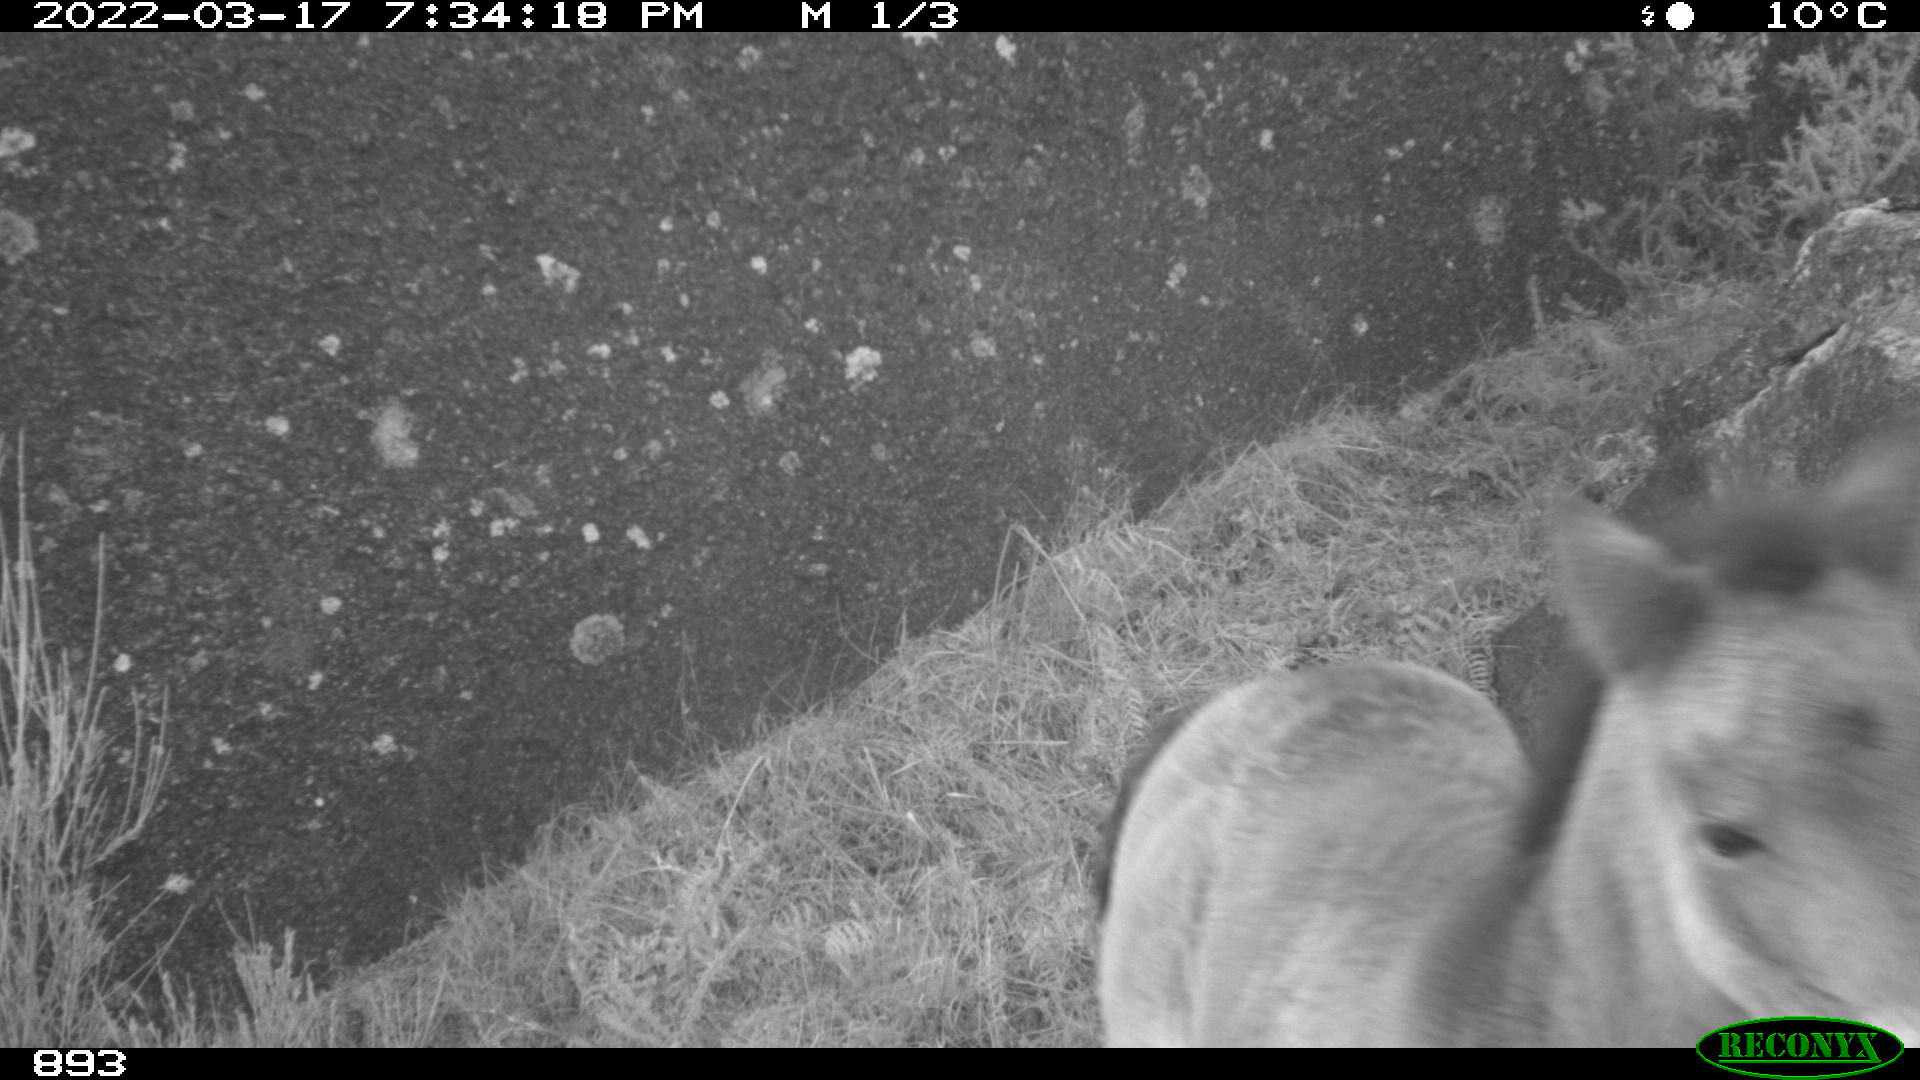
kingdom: Animalia
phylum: Chordata
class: Mammalia
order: Perissodactyla
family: Equidae
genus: Equus
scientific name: Equus caballus
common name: Horse
